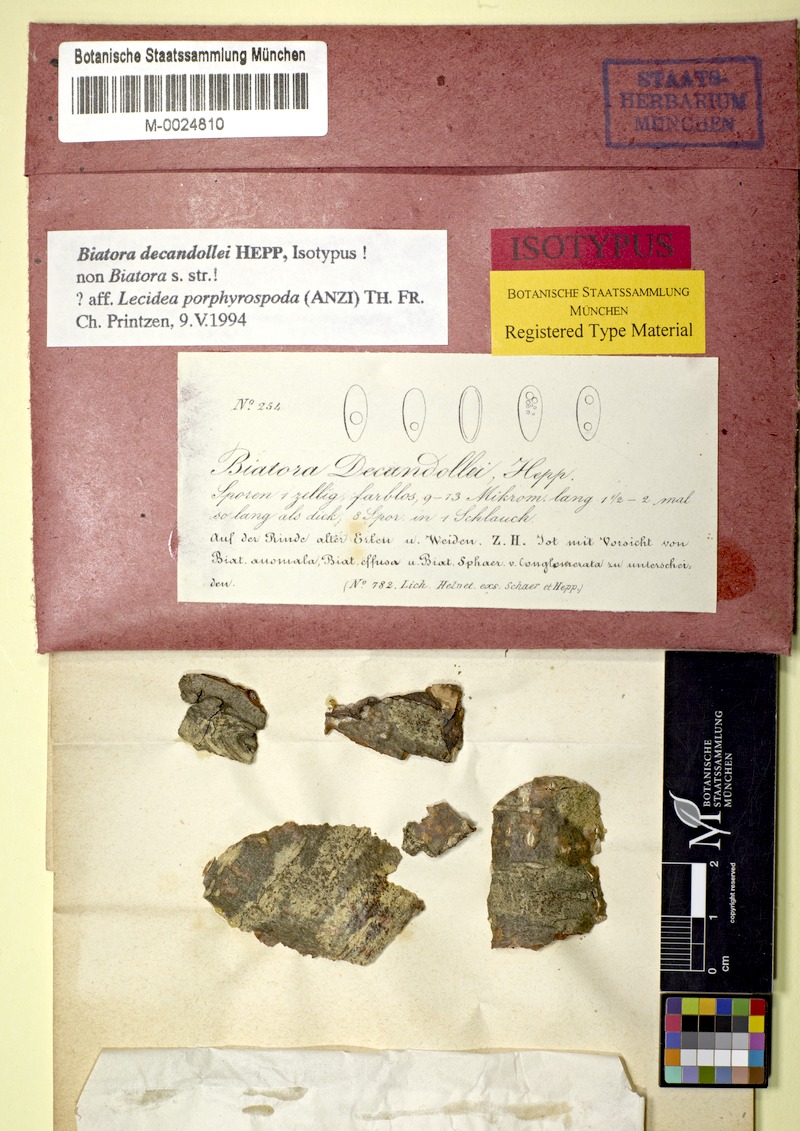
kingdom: Fungi
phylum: Ascomycota
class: Lecanoromycetes
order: Lecanorales
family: Ramalinaceae
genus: Biatora
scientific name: Biatora
